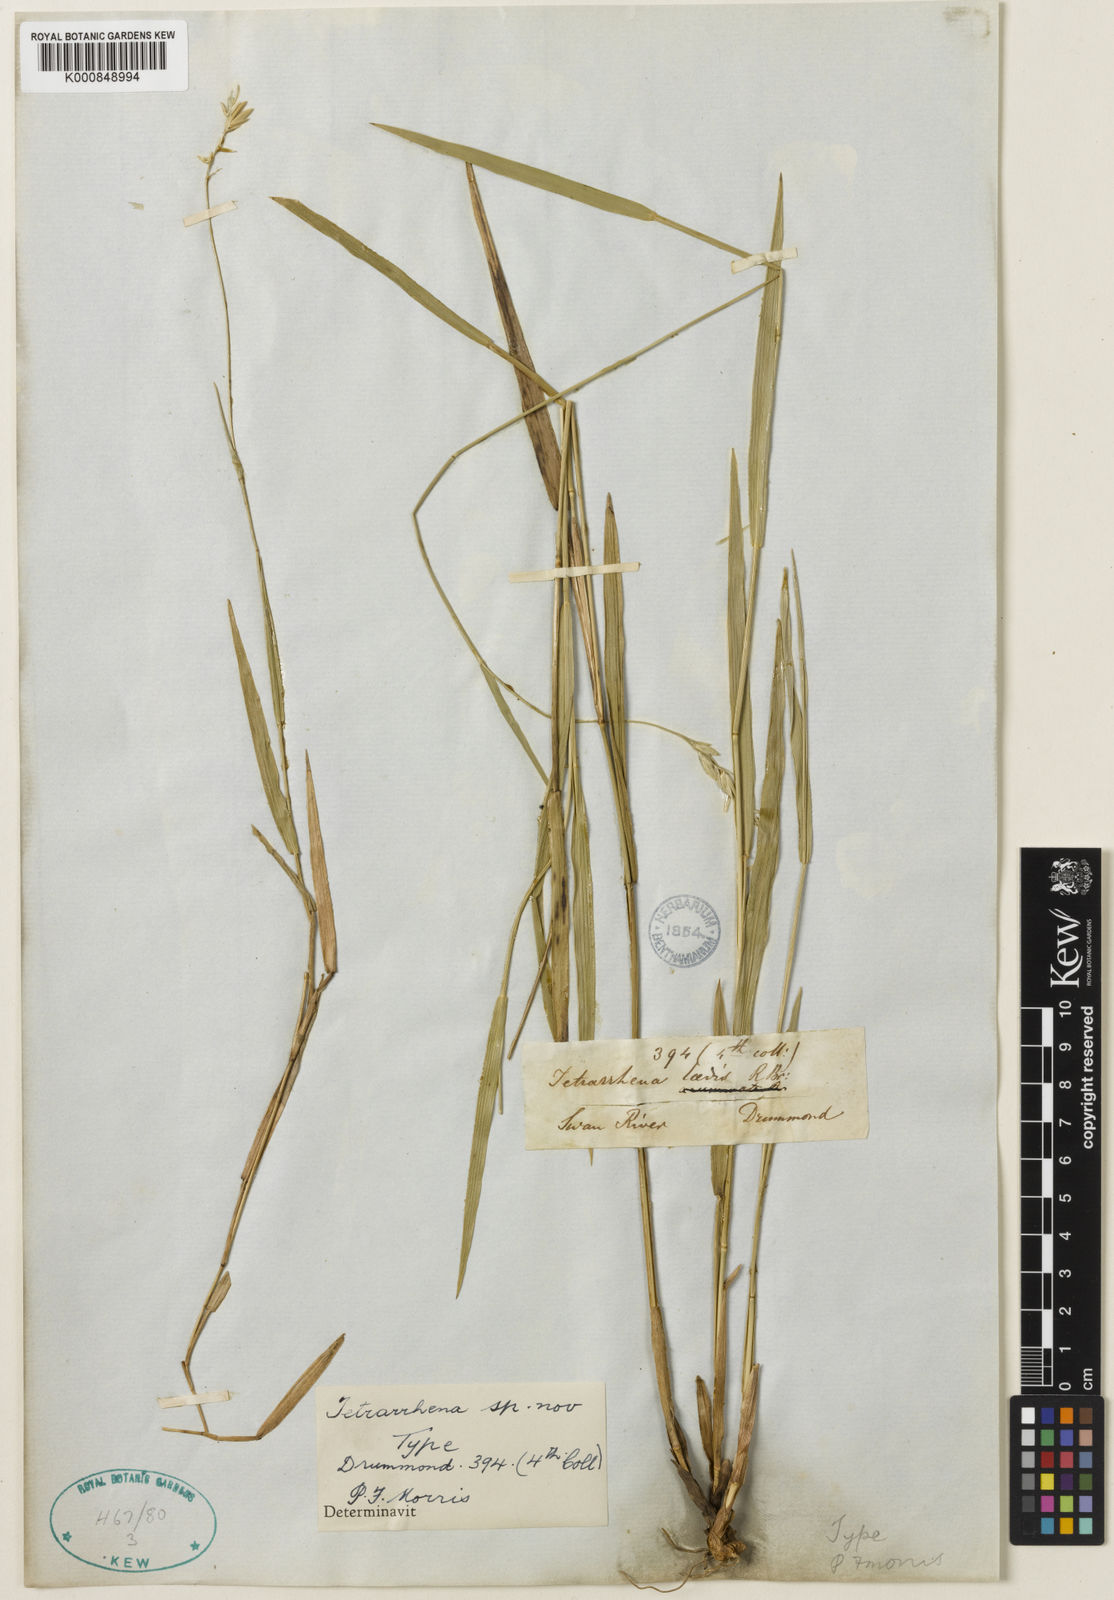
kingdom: Plantae
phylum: Tracheophyta
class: Liliopsida
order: Poales
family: Poaceae
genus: Tetrarrhena
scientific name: Tetrarrhena laevis
